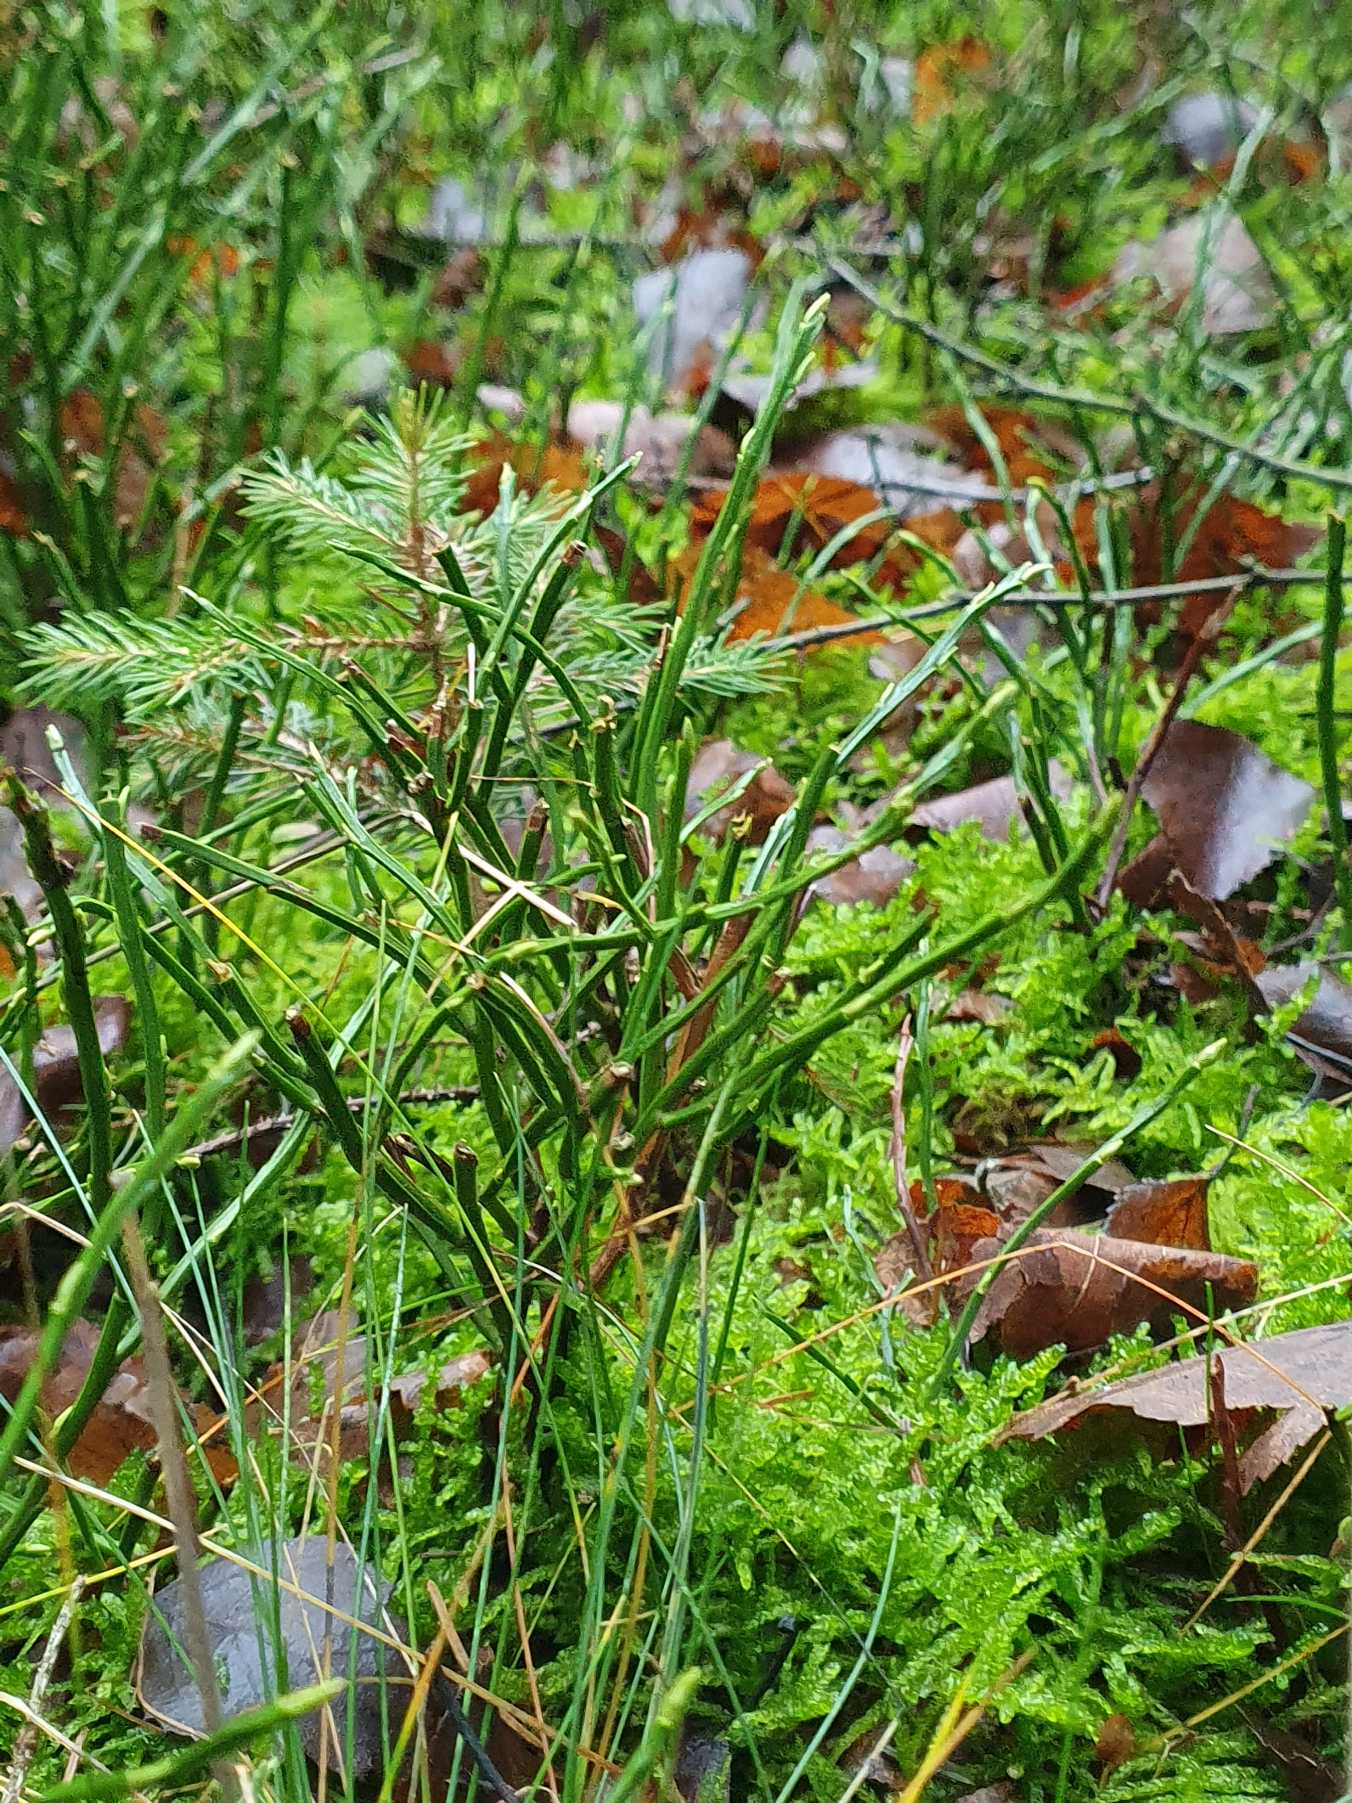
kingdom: Plantae
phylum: Tracheophyta
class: Magnoliopsida
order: Ericales
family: Ericaceae
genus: Vaccinium
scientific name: Vaccinium myrtillus
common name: Blåbær
